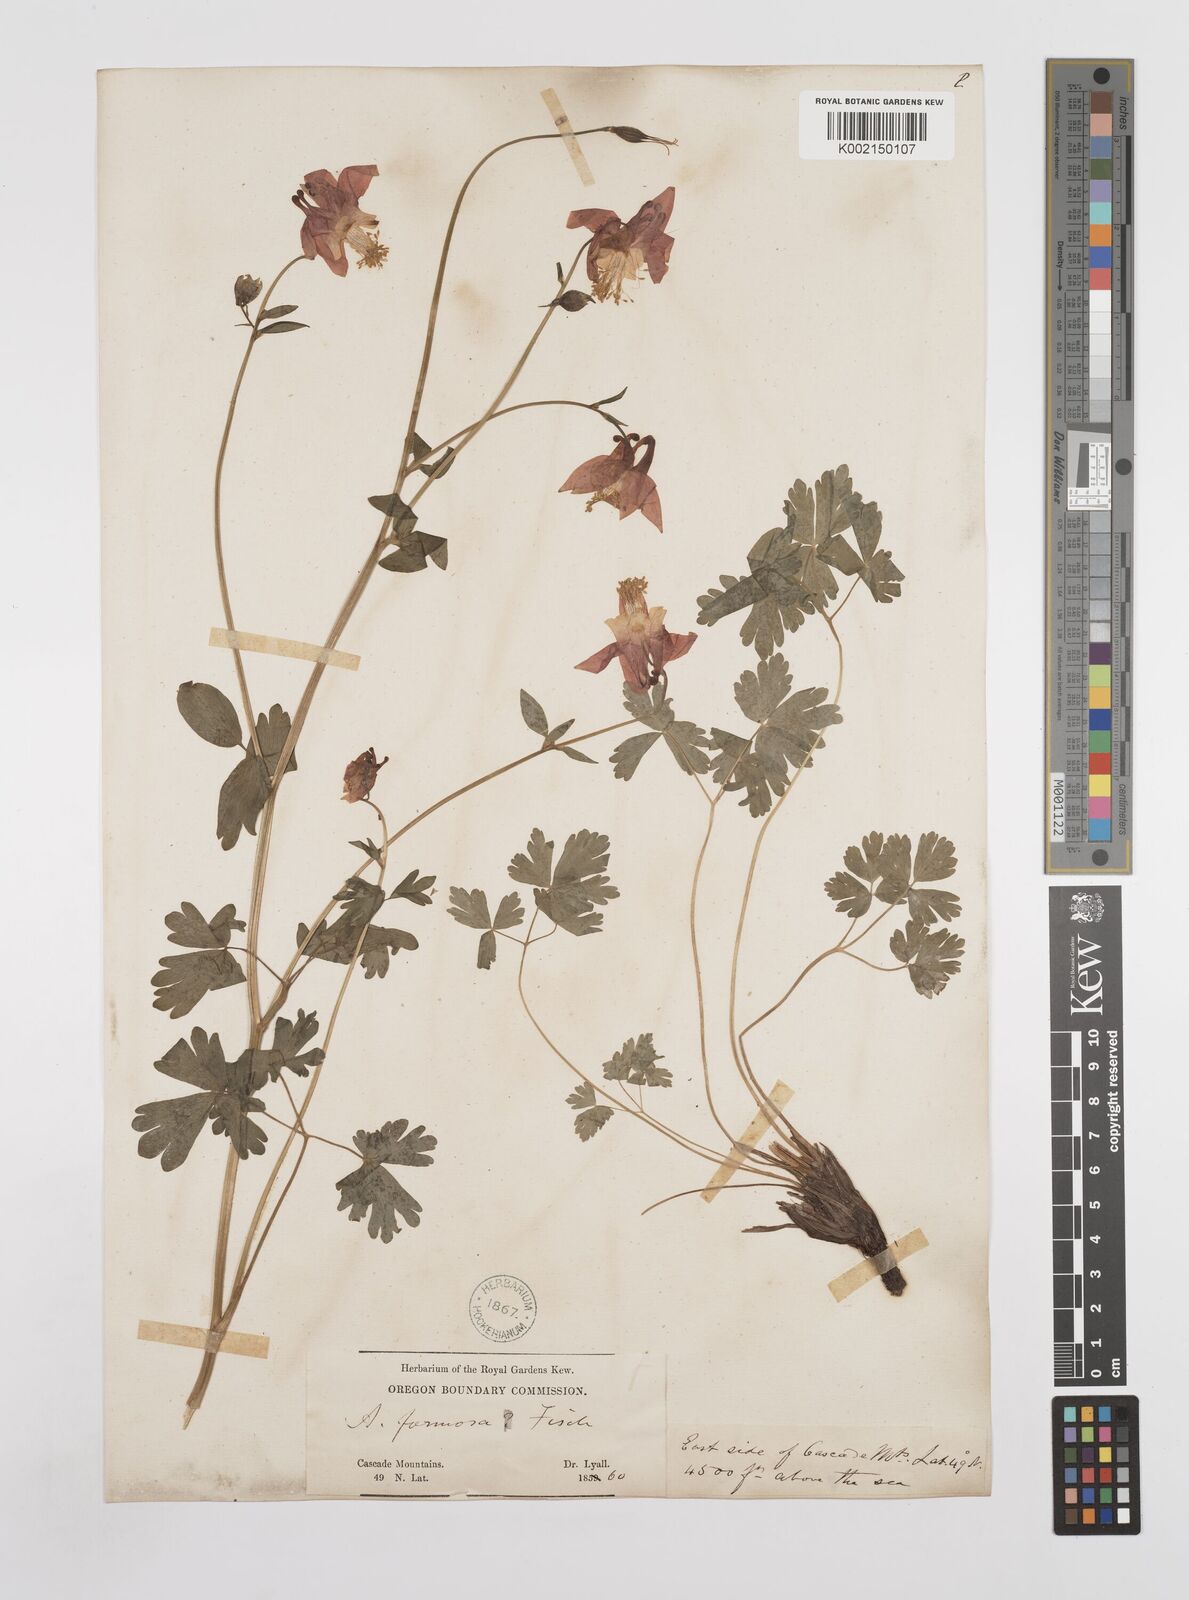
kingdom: Plantae
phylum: Tracheophyta
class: Magnoliopsida
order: Ranunculales
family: Ranunculaceae
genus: Aquilegia
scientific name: Aquilegia
